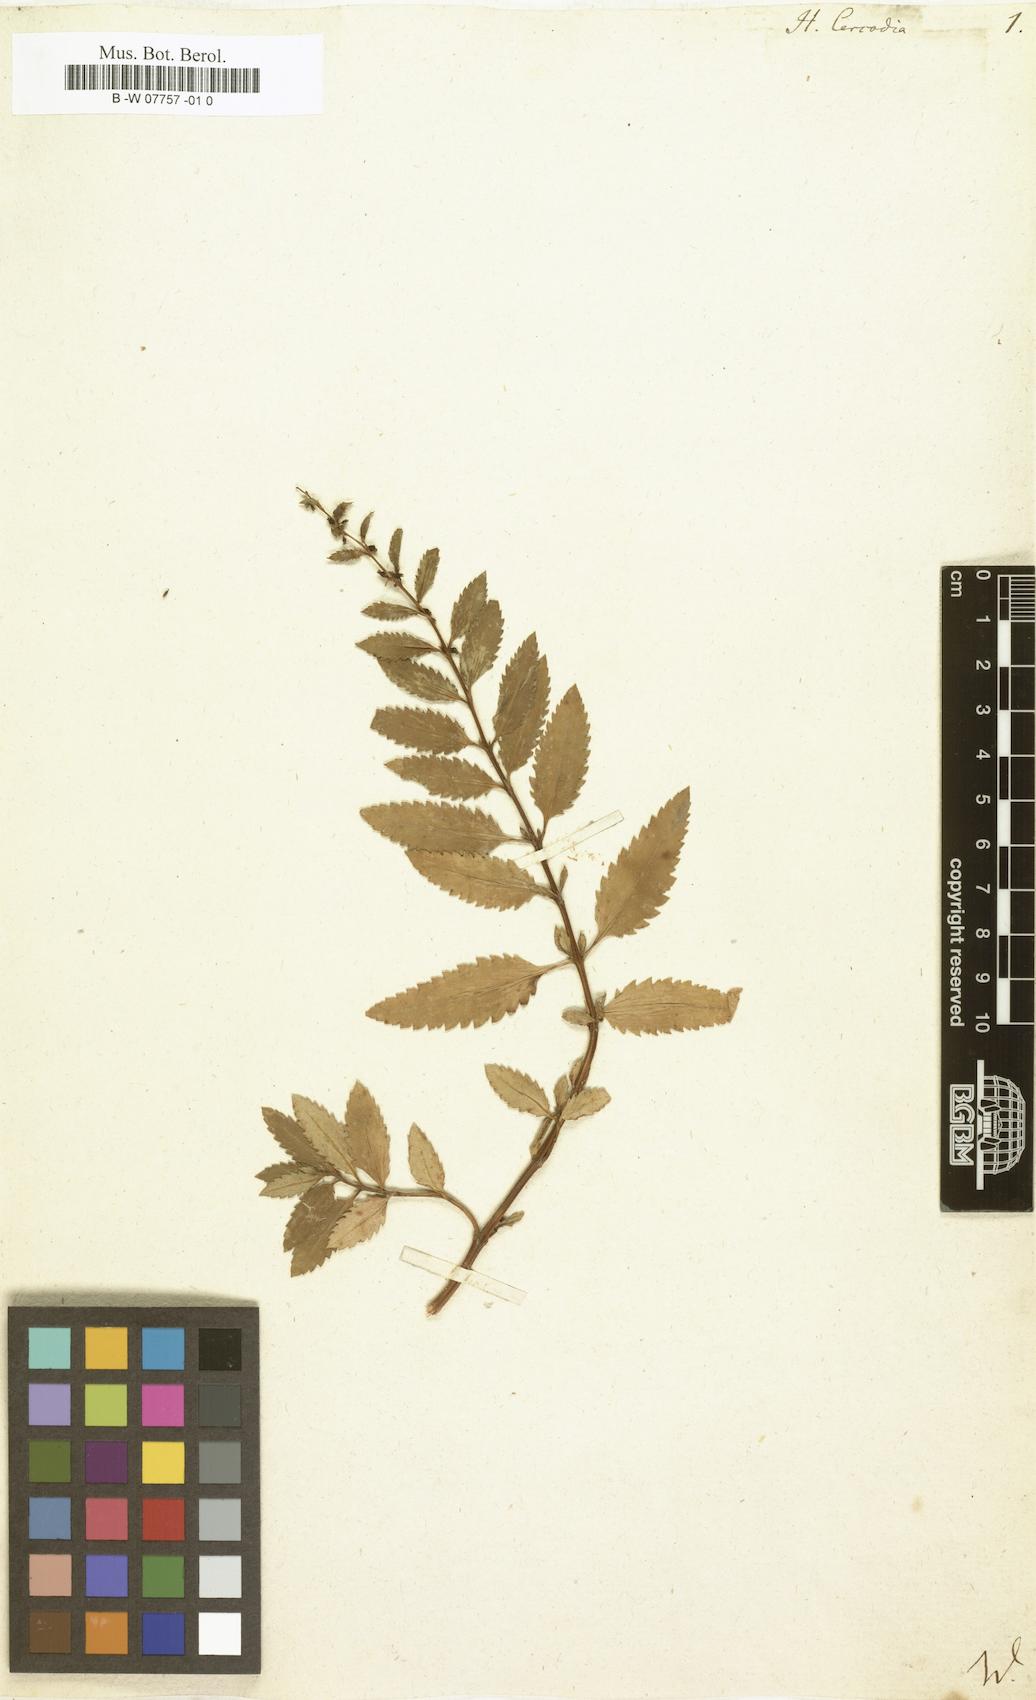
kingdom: Plantae
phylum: Tracheophyta
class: Magnoliopsida
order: Saxifragales
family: Haloragaceae
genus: Haloragis
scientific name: Haloragis erecta
